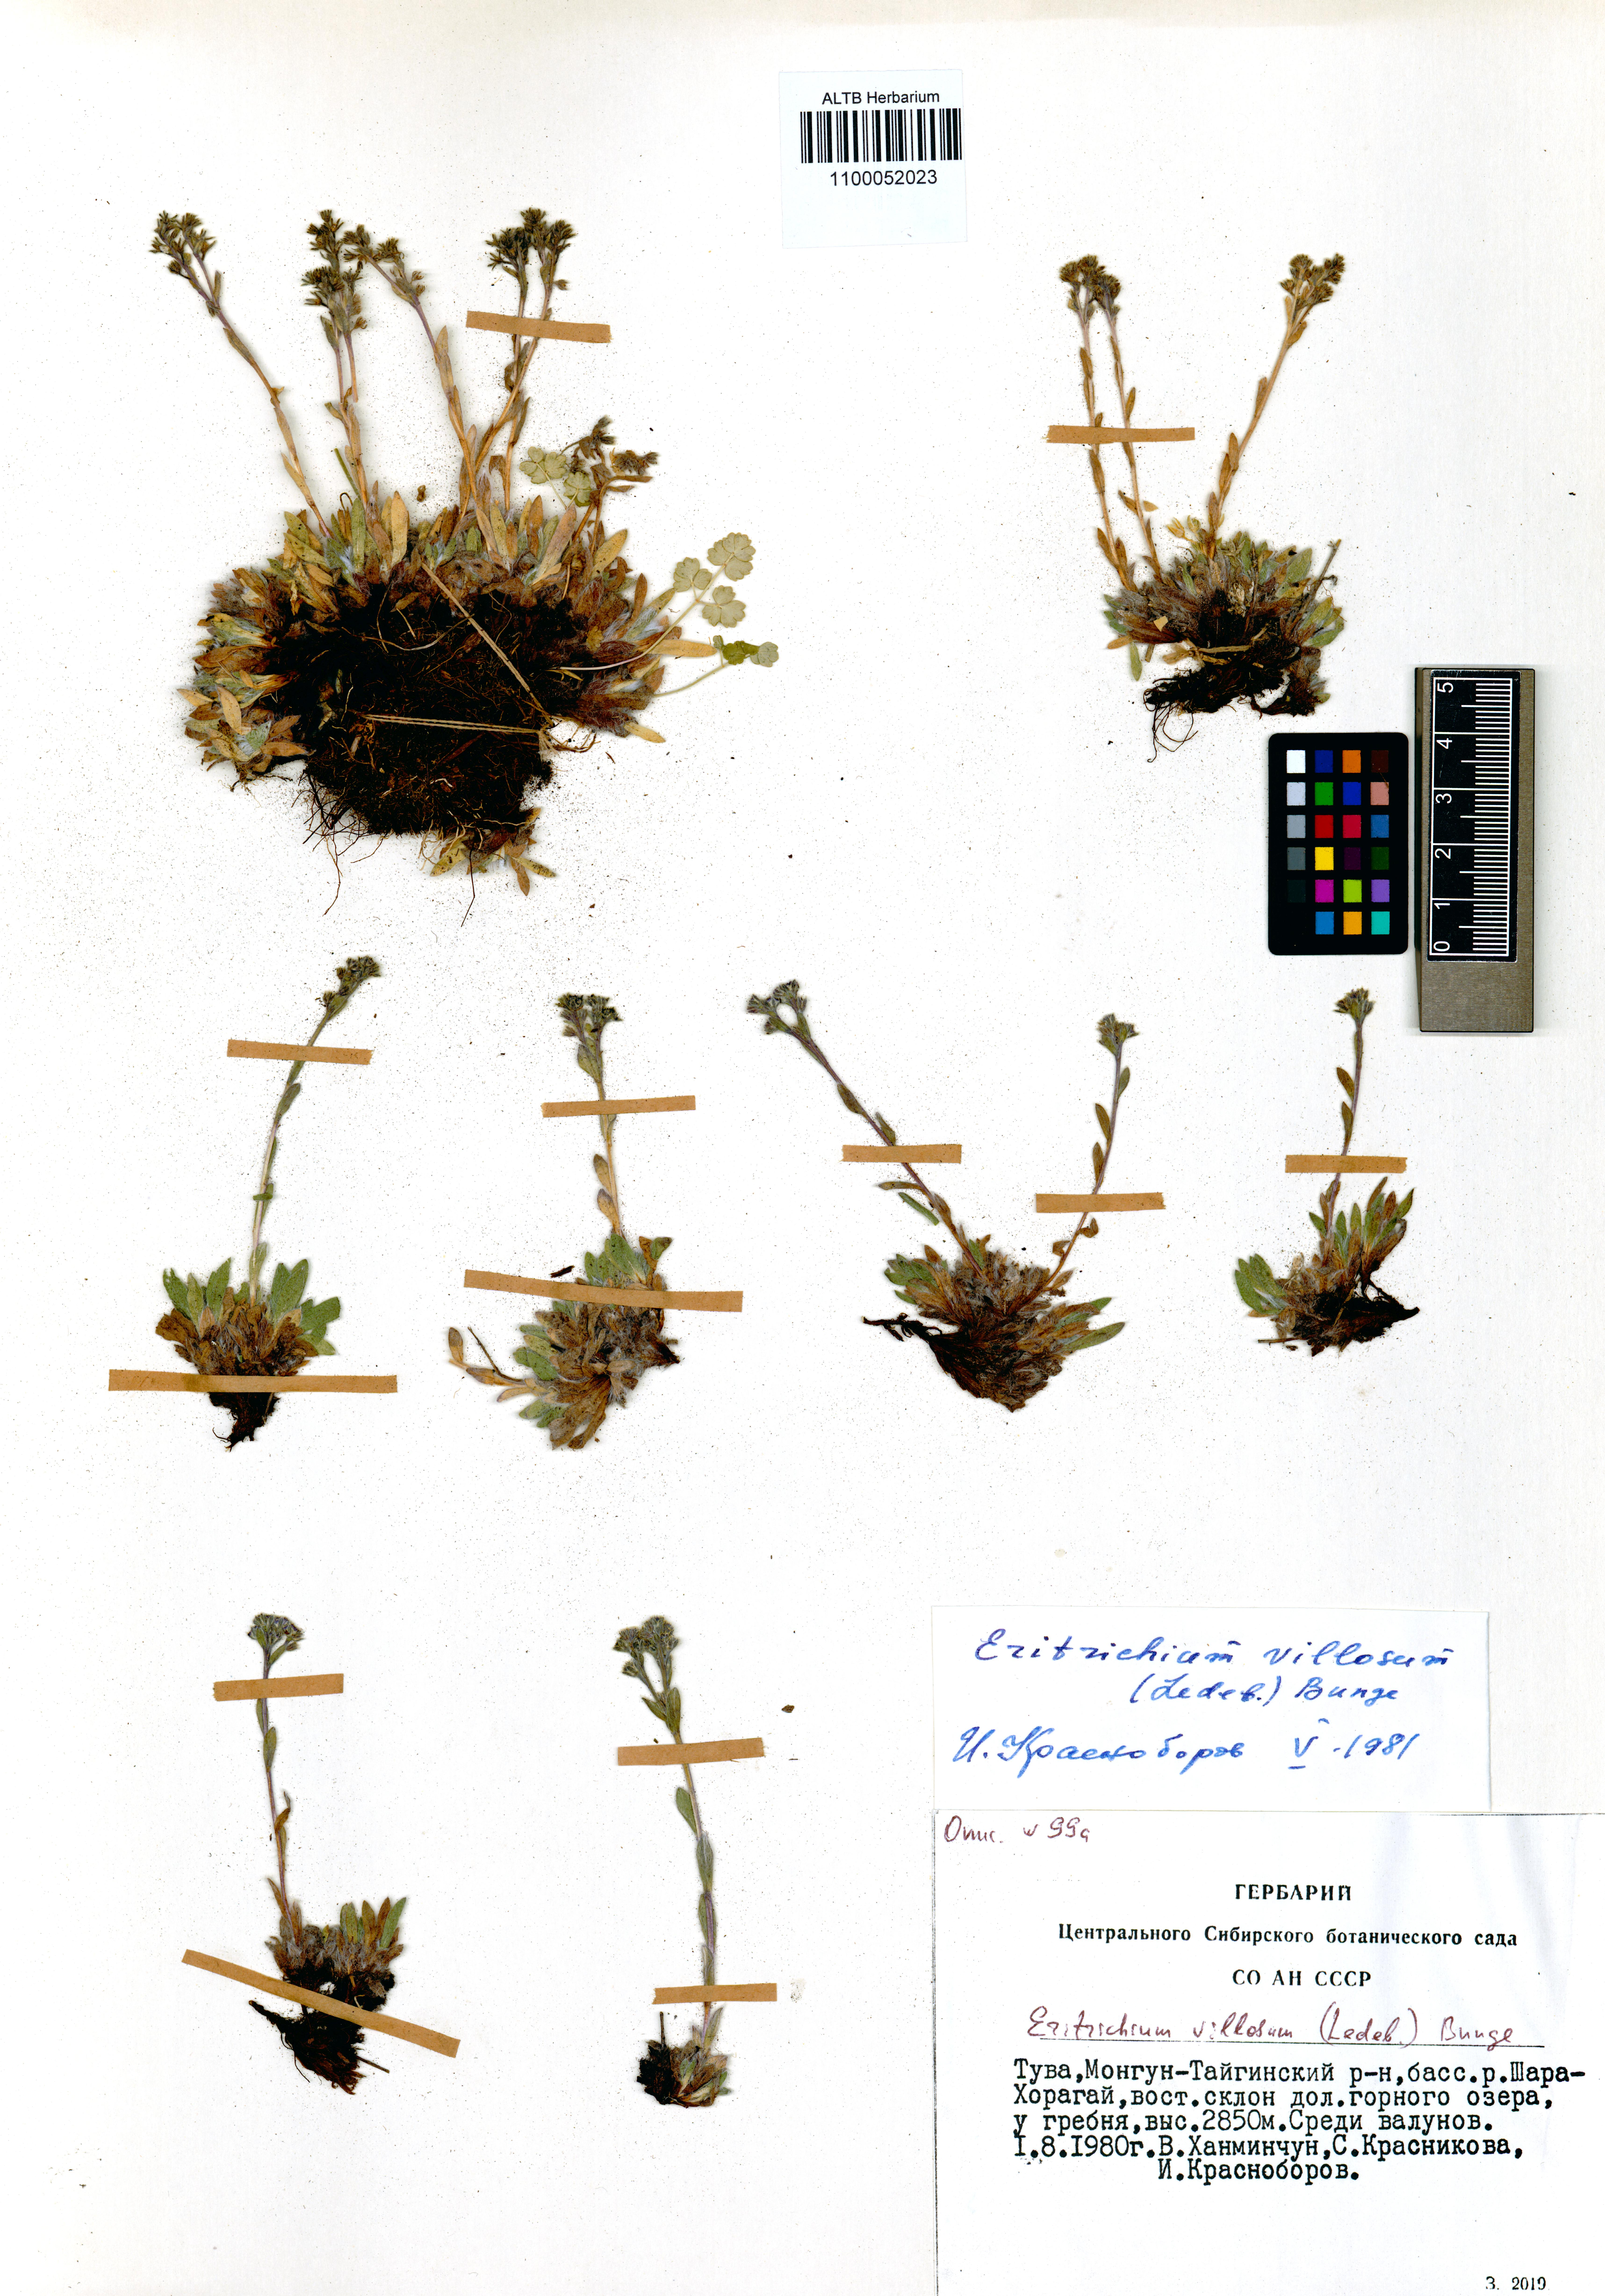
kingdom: Plantae
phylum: Tracheophyta
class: Magnoliopsida
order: Boraginales
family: Boraginaceae
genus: Eritrichium
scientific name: Eritrichium villosum
